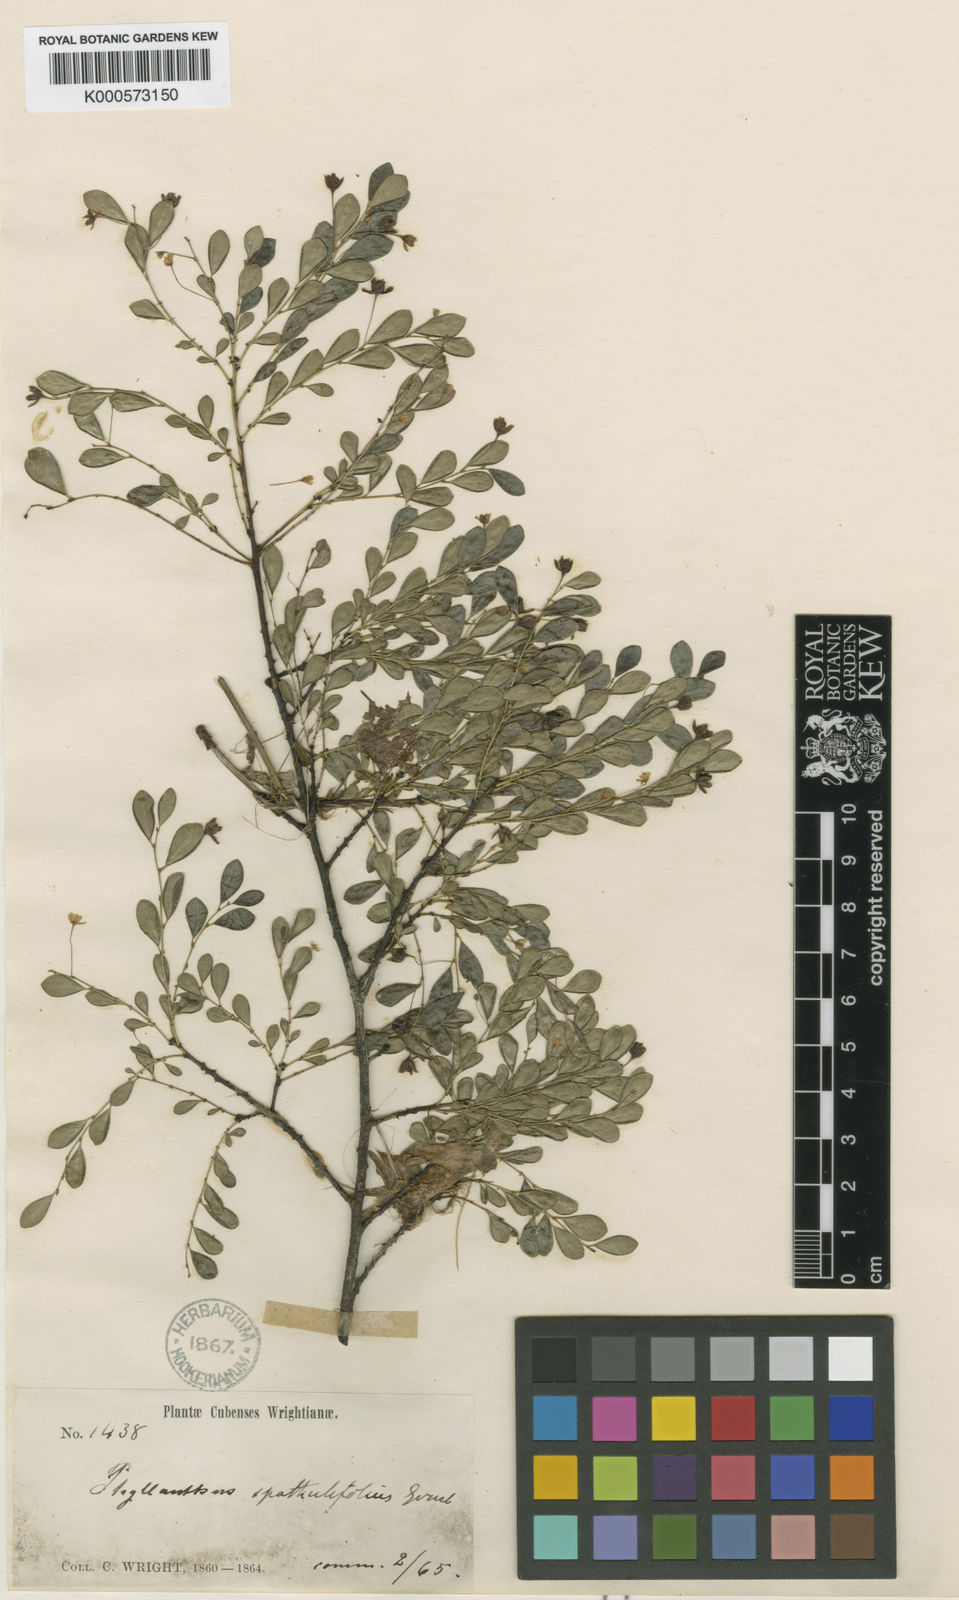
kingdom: Plantae
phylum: Tracheophyta
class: Magnoliopsida
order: Malpighiales
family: Phyllanthaceae
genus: Phyllanthus
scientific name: Phyllanthus myrtilloides
